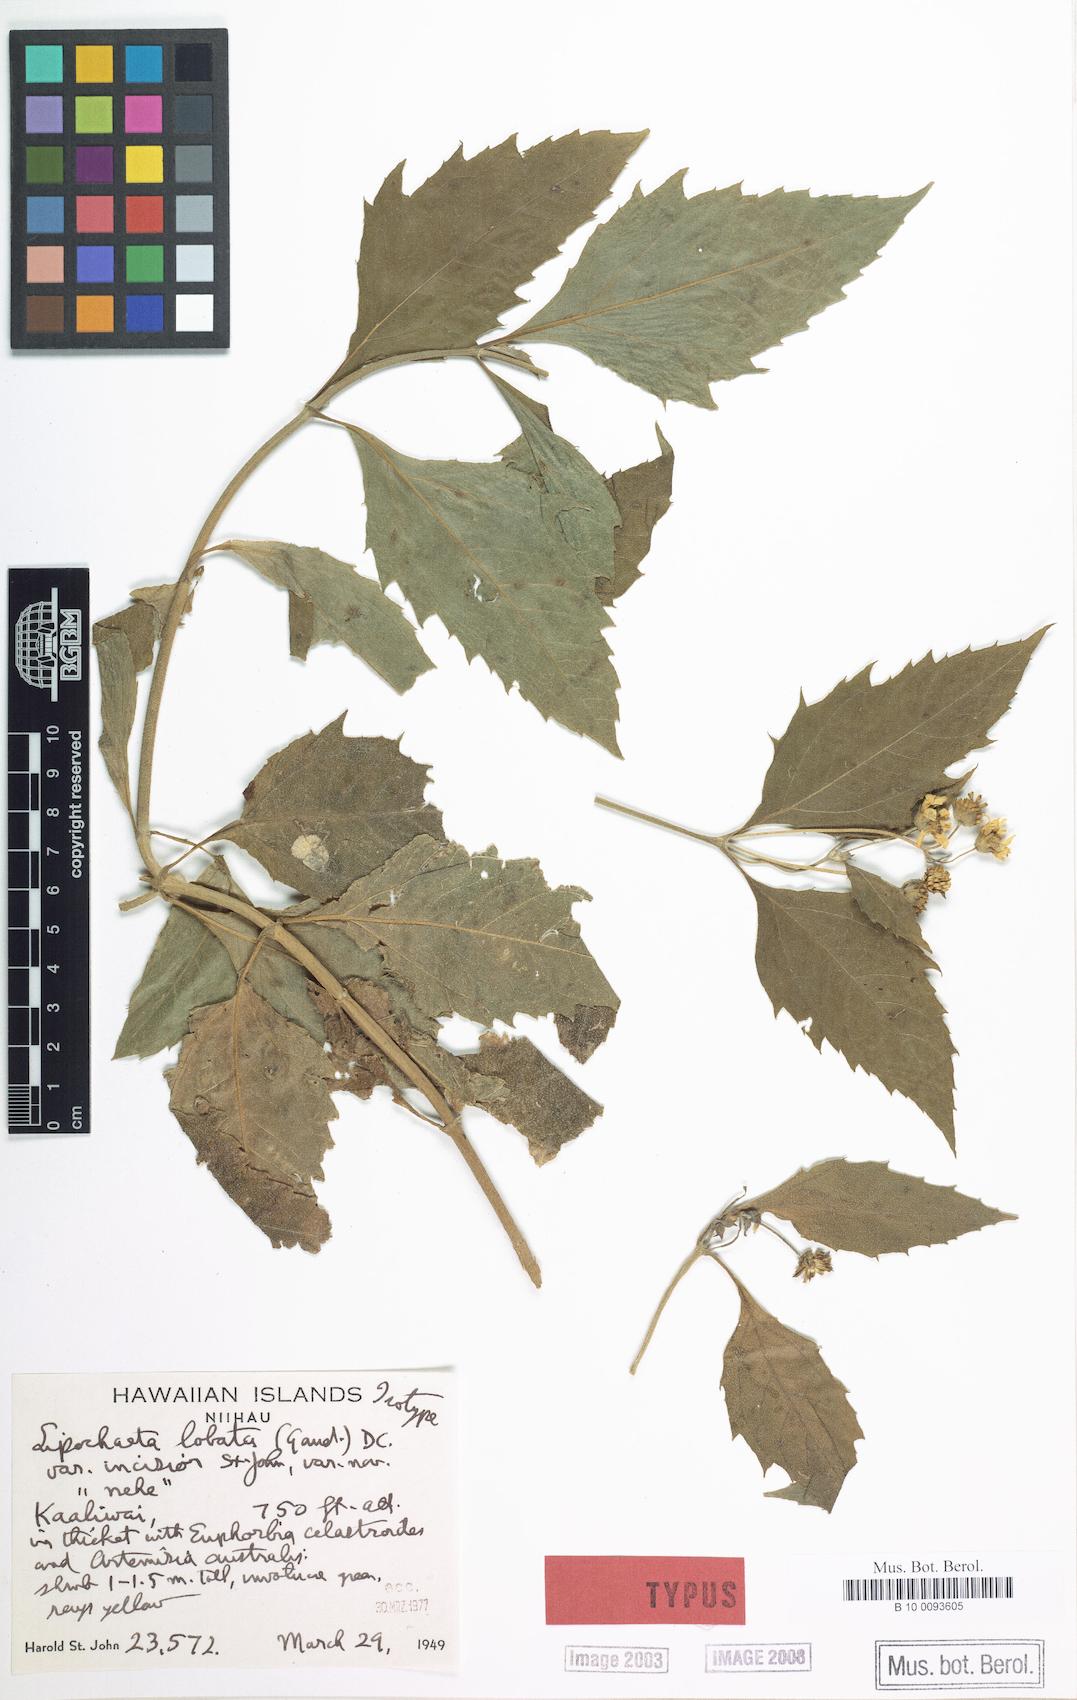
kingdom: Plantae
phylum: Tracheophyta
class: Magnoliopsida
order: Asterales
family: Asteraceae
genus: Lipochaeta
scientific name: Lipochaeta connata
